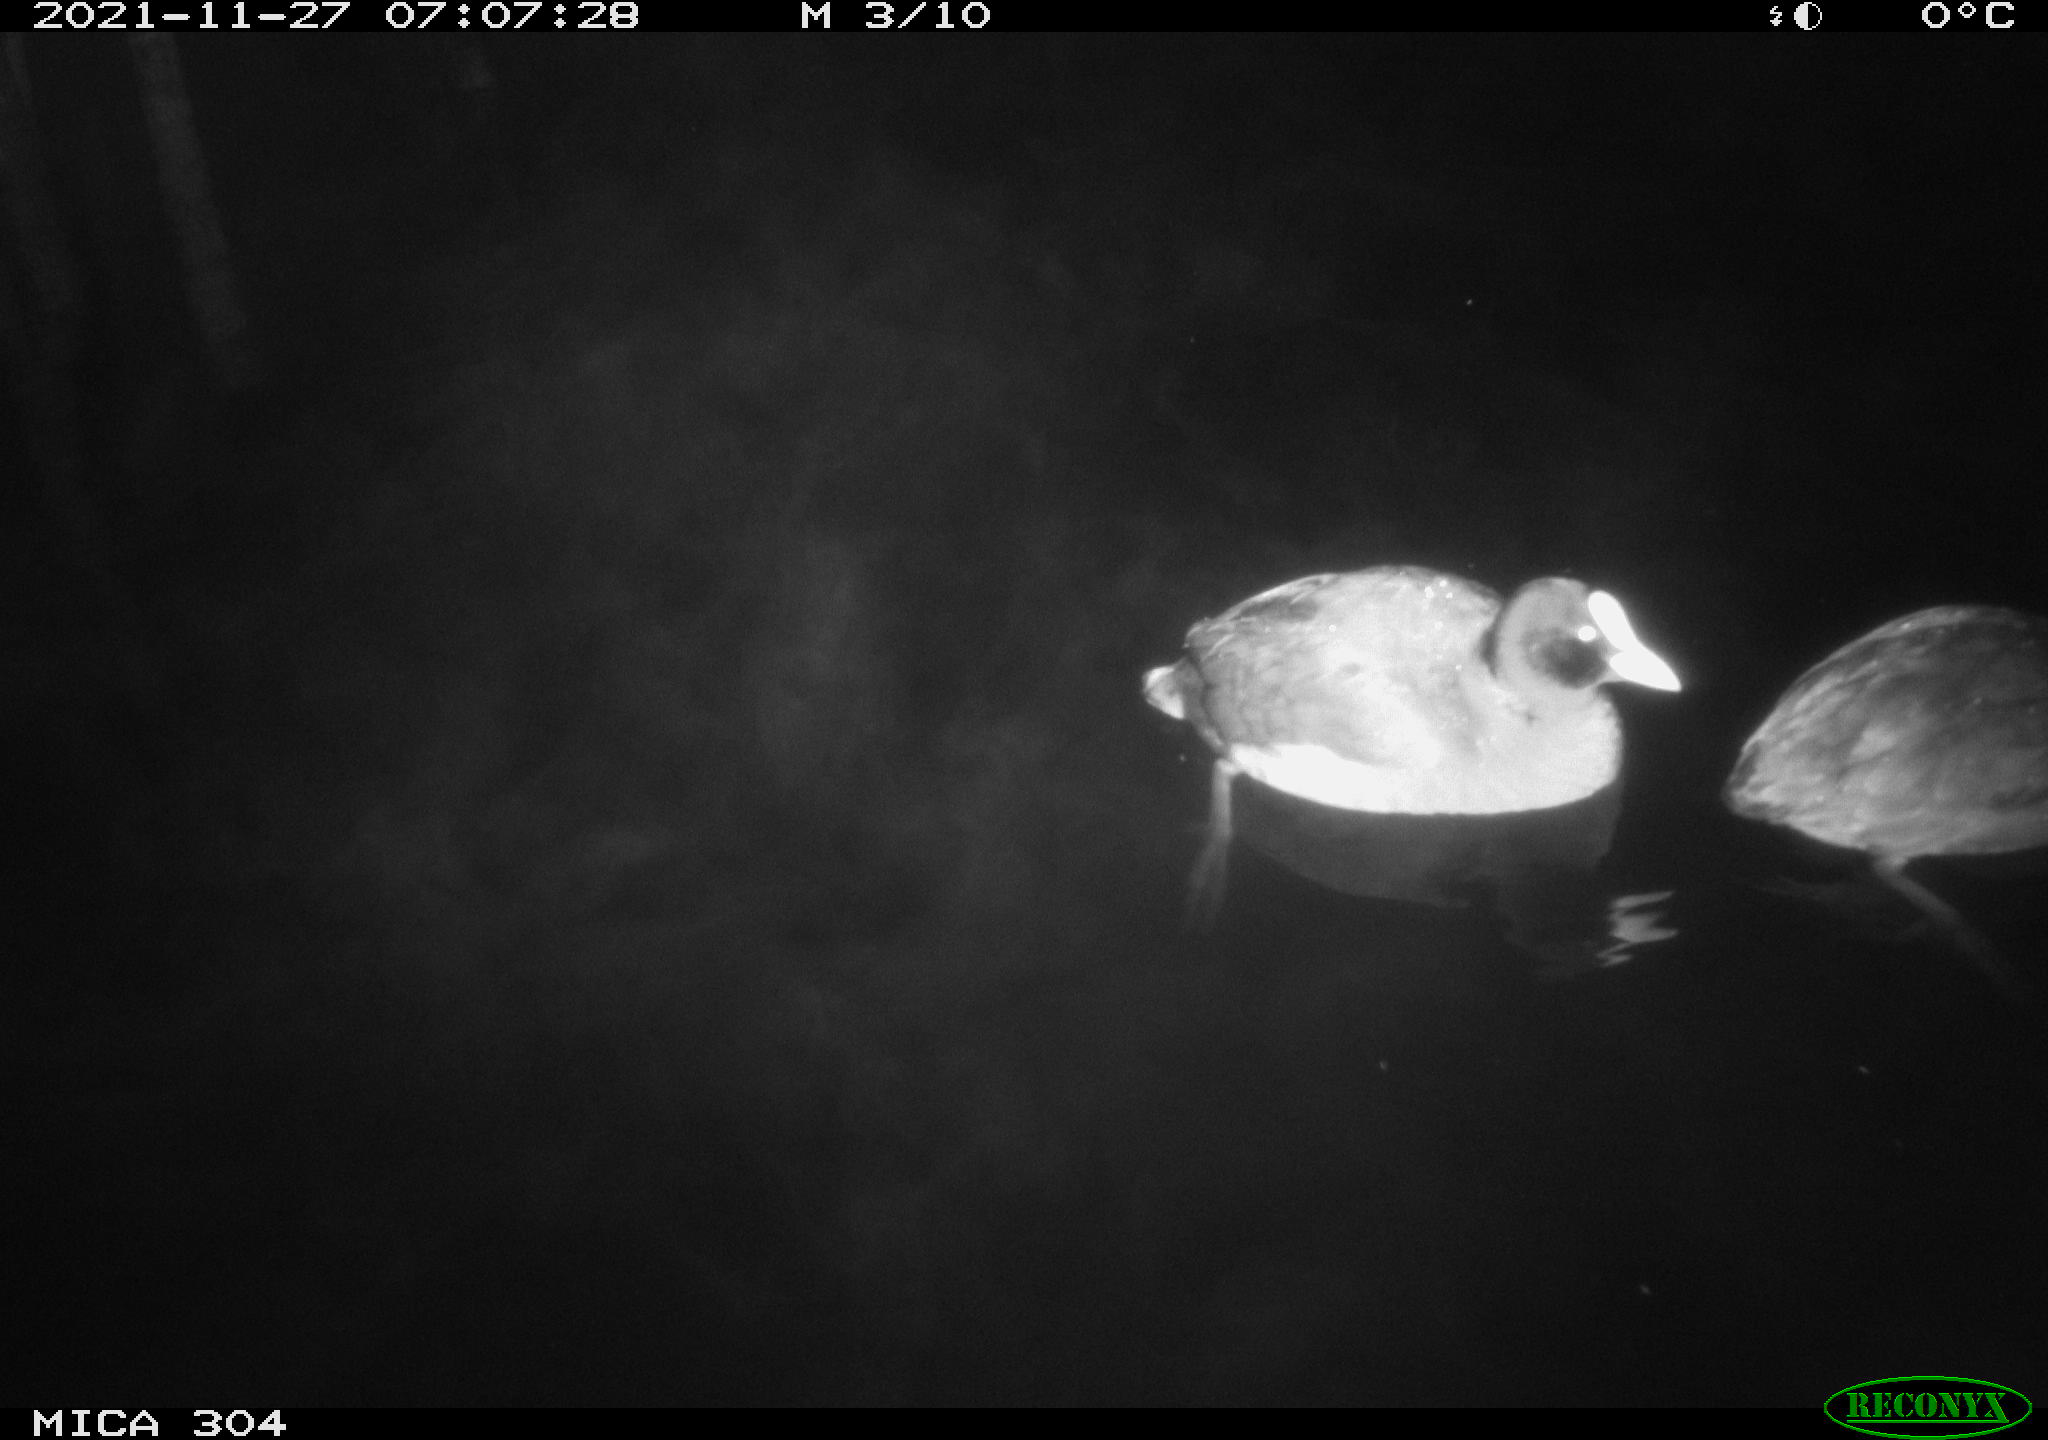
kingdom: Animalia
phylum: Chordata
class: Aves
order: Gruiformes
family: Rallidae
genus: Fulica
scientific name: Fulica atra
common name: Eurasian coot
